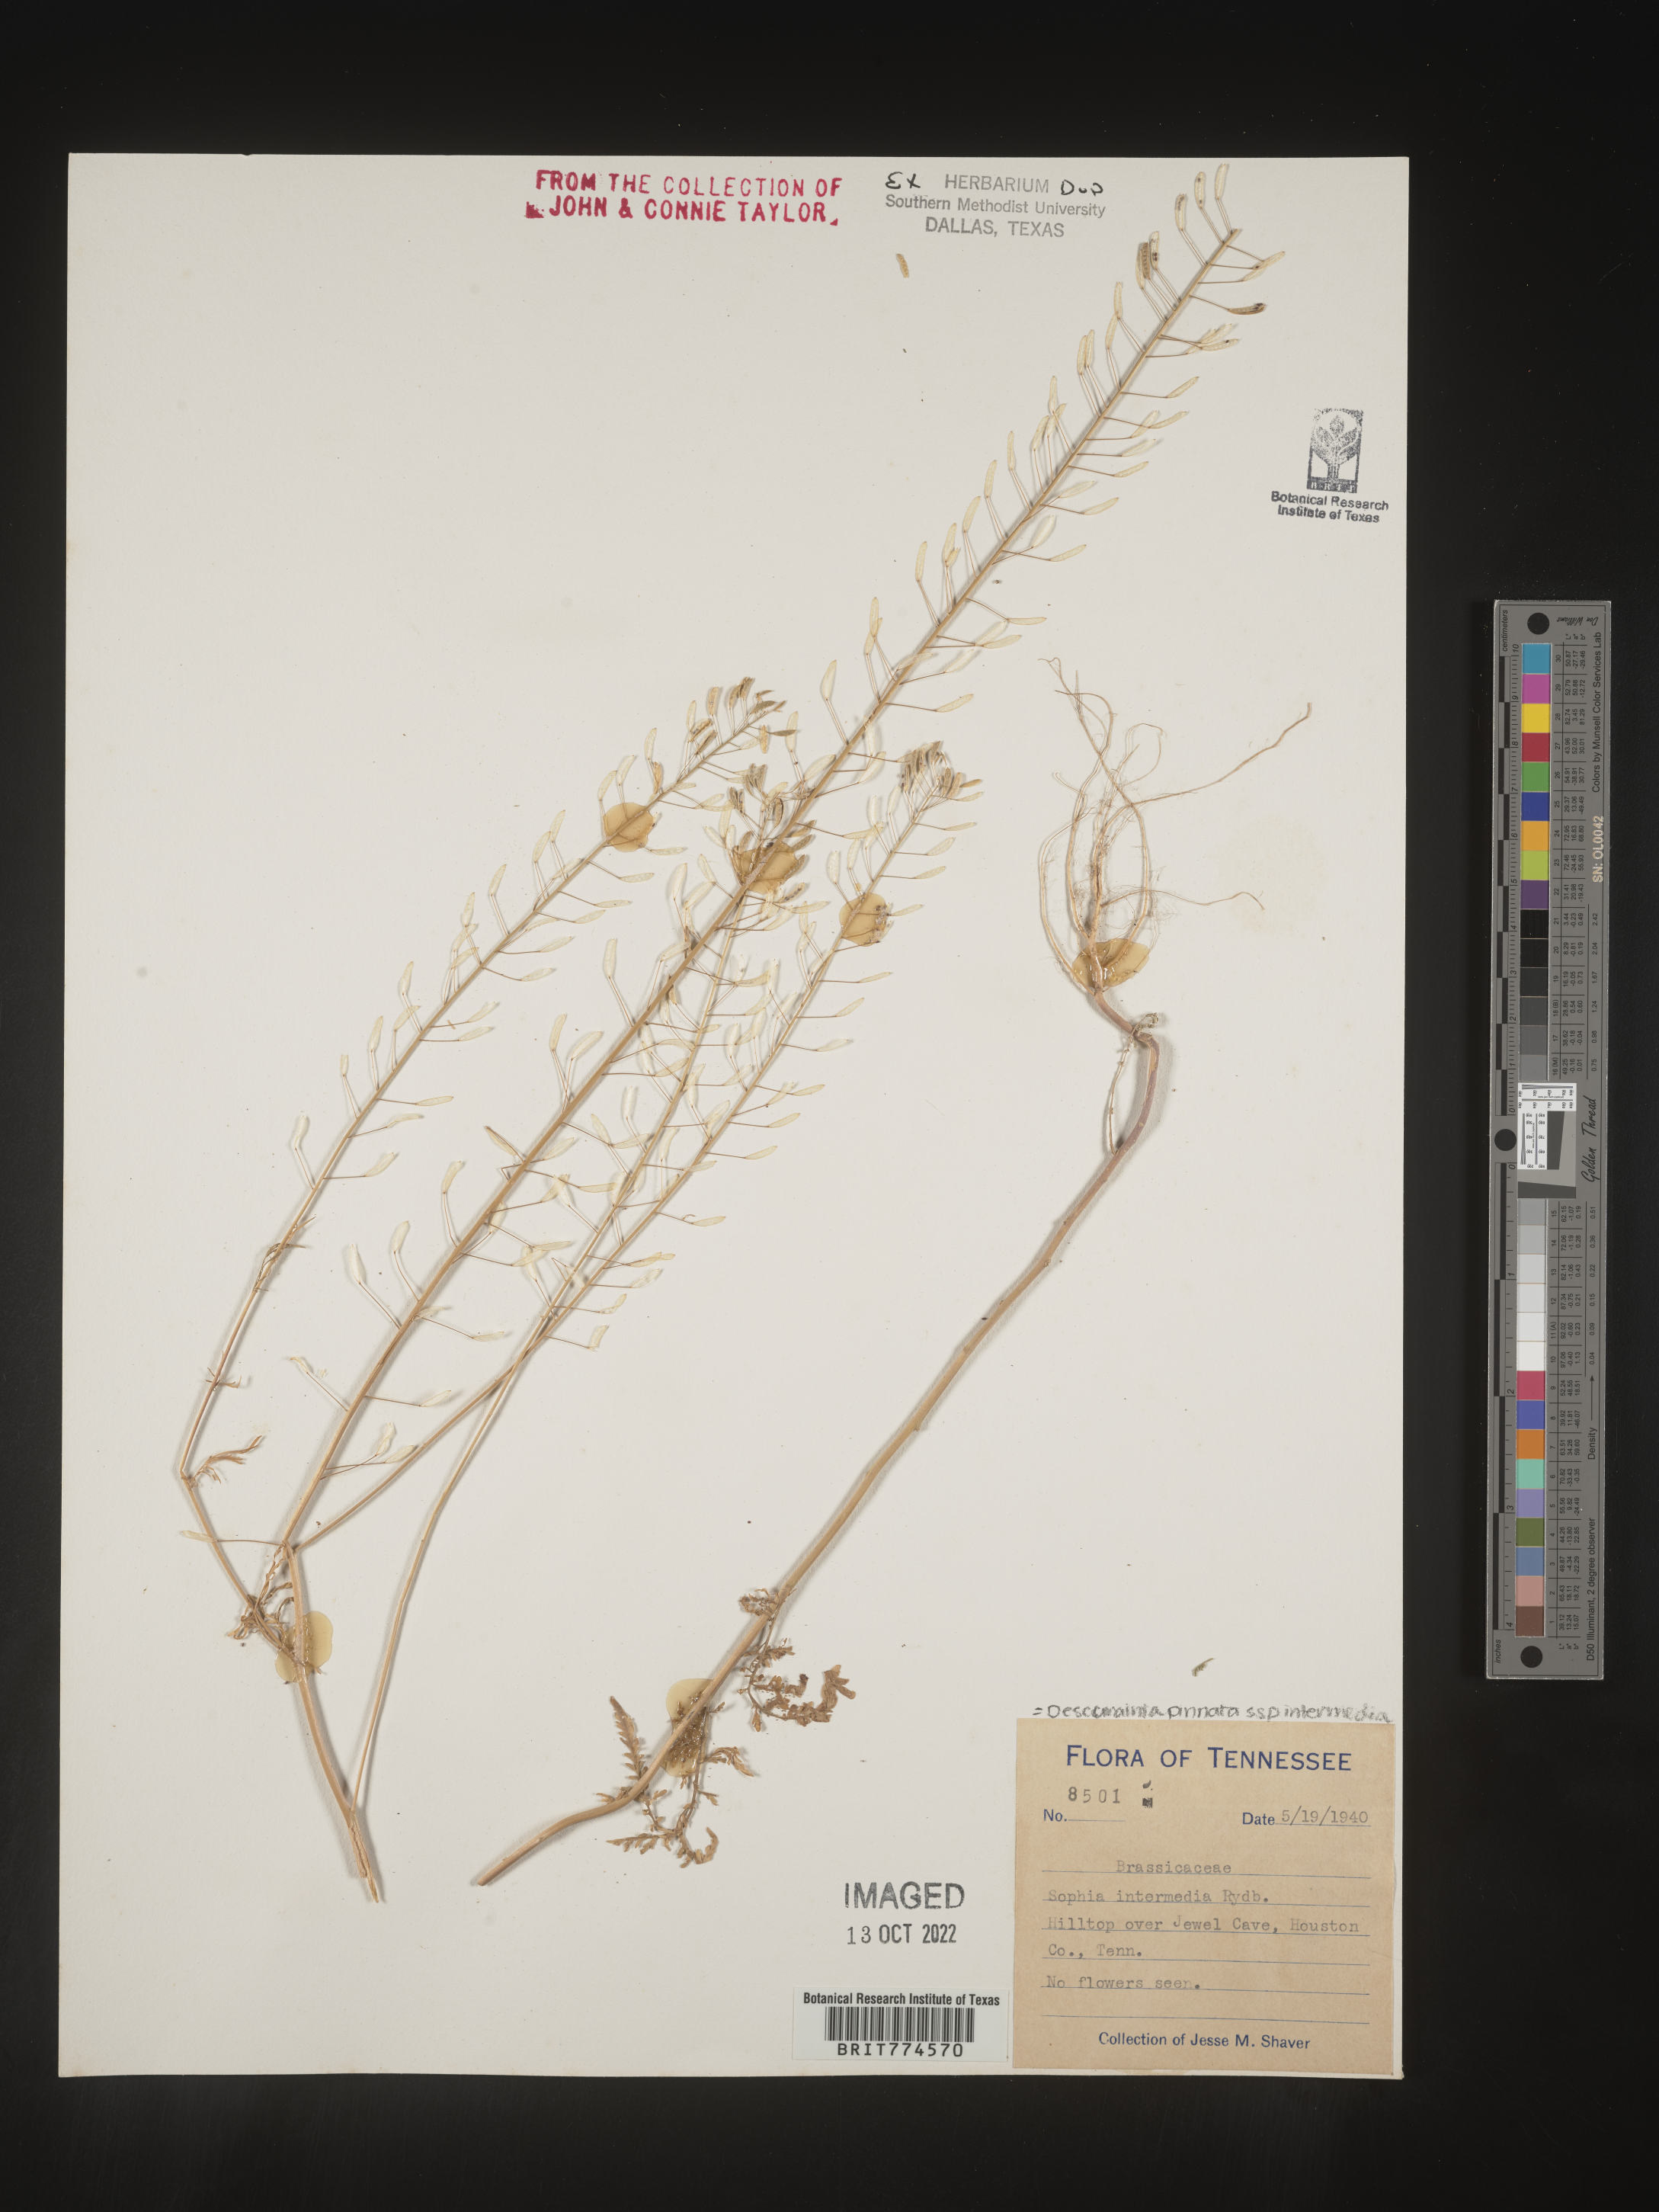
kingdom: Plantae
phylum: Tracheophyta
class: Magnoliopsida
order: Brassicales
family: Brassicaceae
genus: Descurainia
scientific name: Descurainia pinnata
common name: Western tansy mustard
